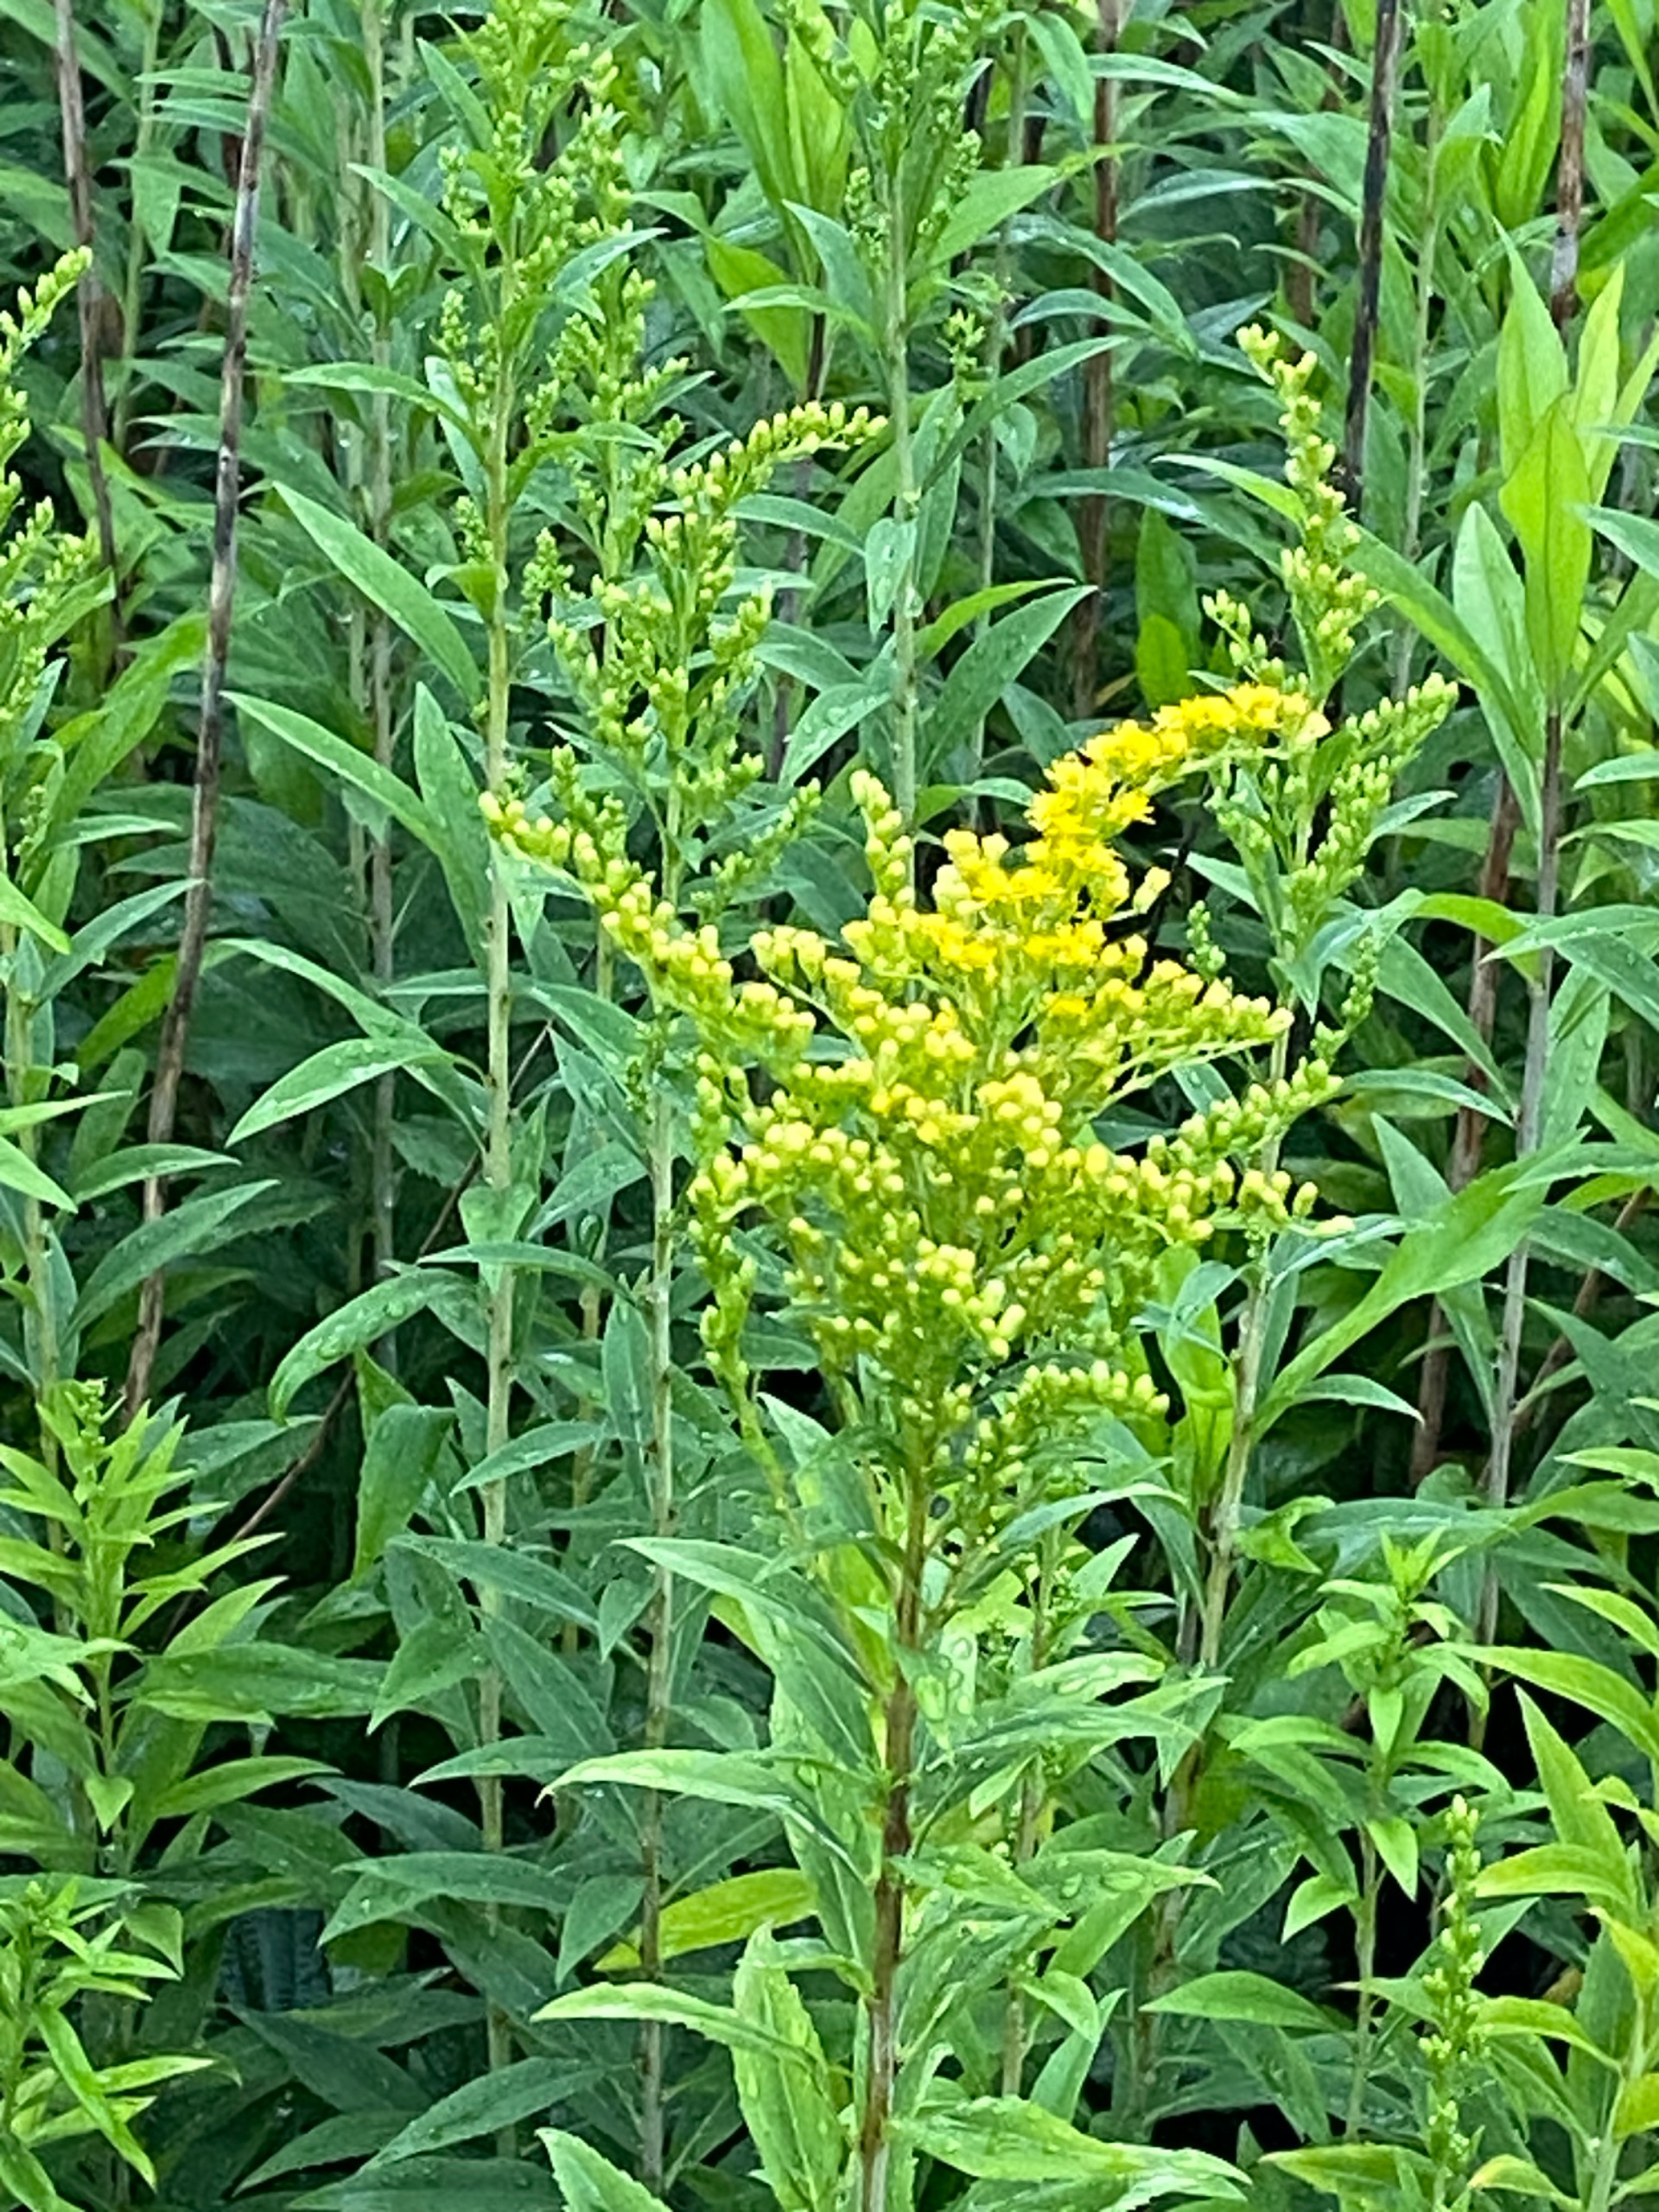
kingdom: Plantae
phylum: Tracheophyta
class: Magnoliopsida
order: Asterales
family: Asteraceae
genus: Solidago
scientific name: Solidago
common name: Gyldenrisslægten
